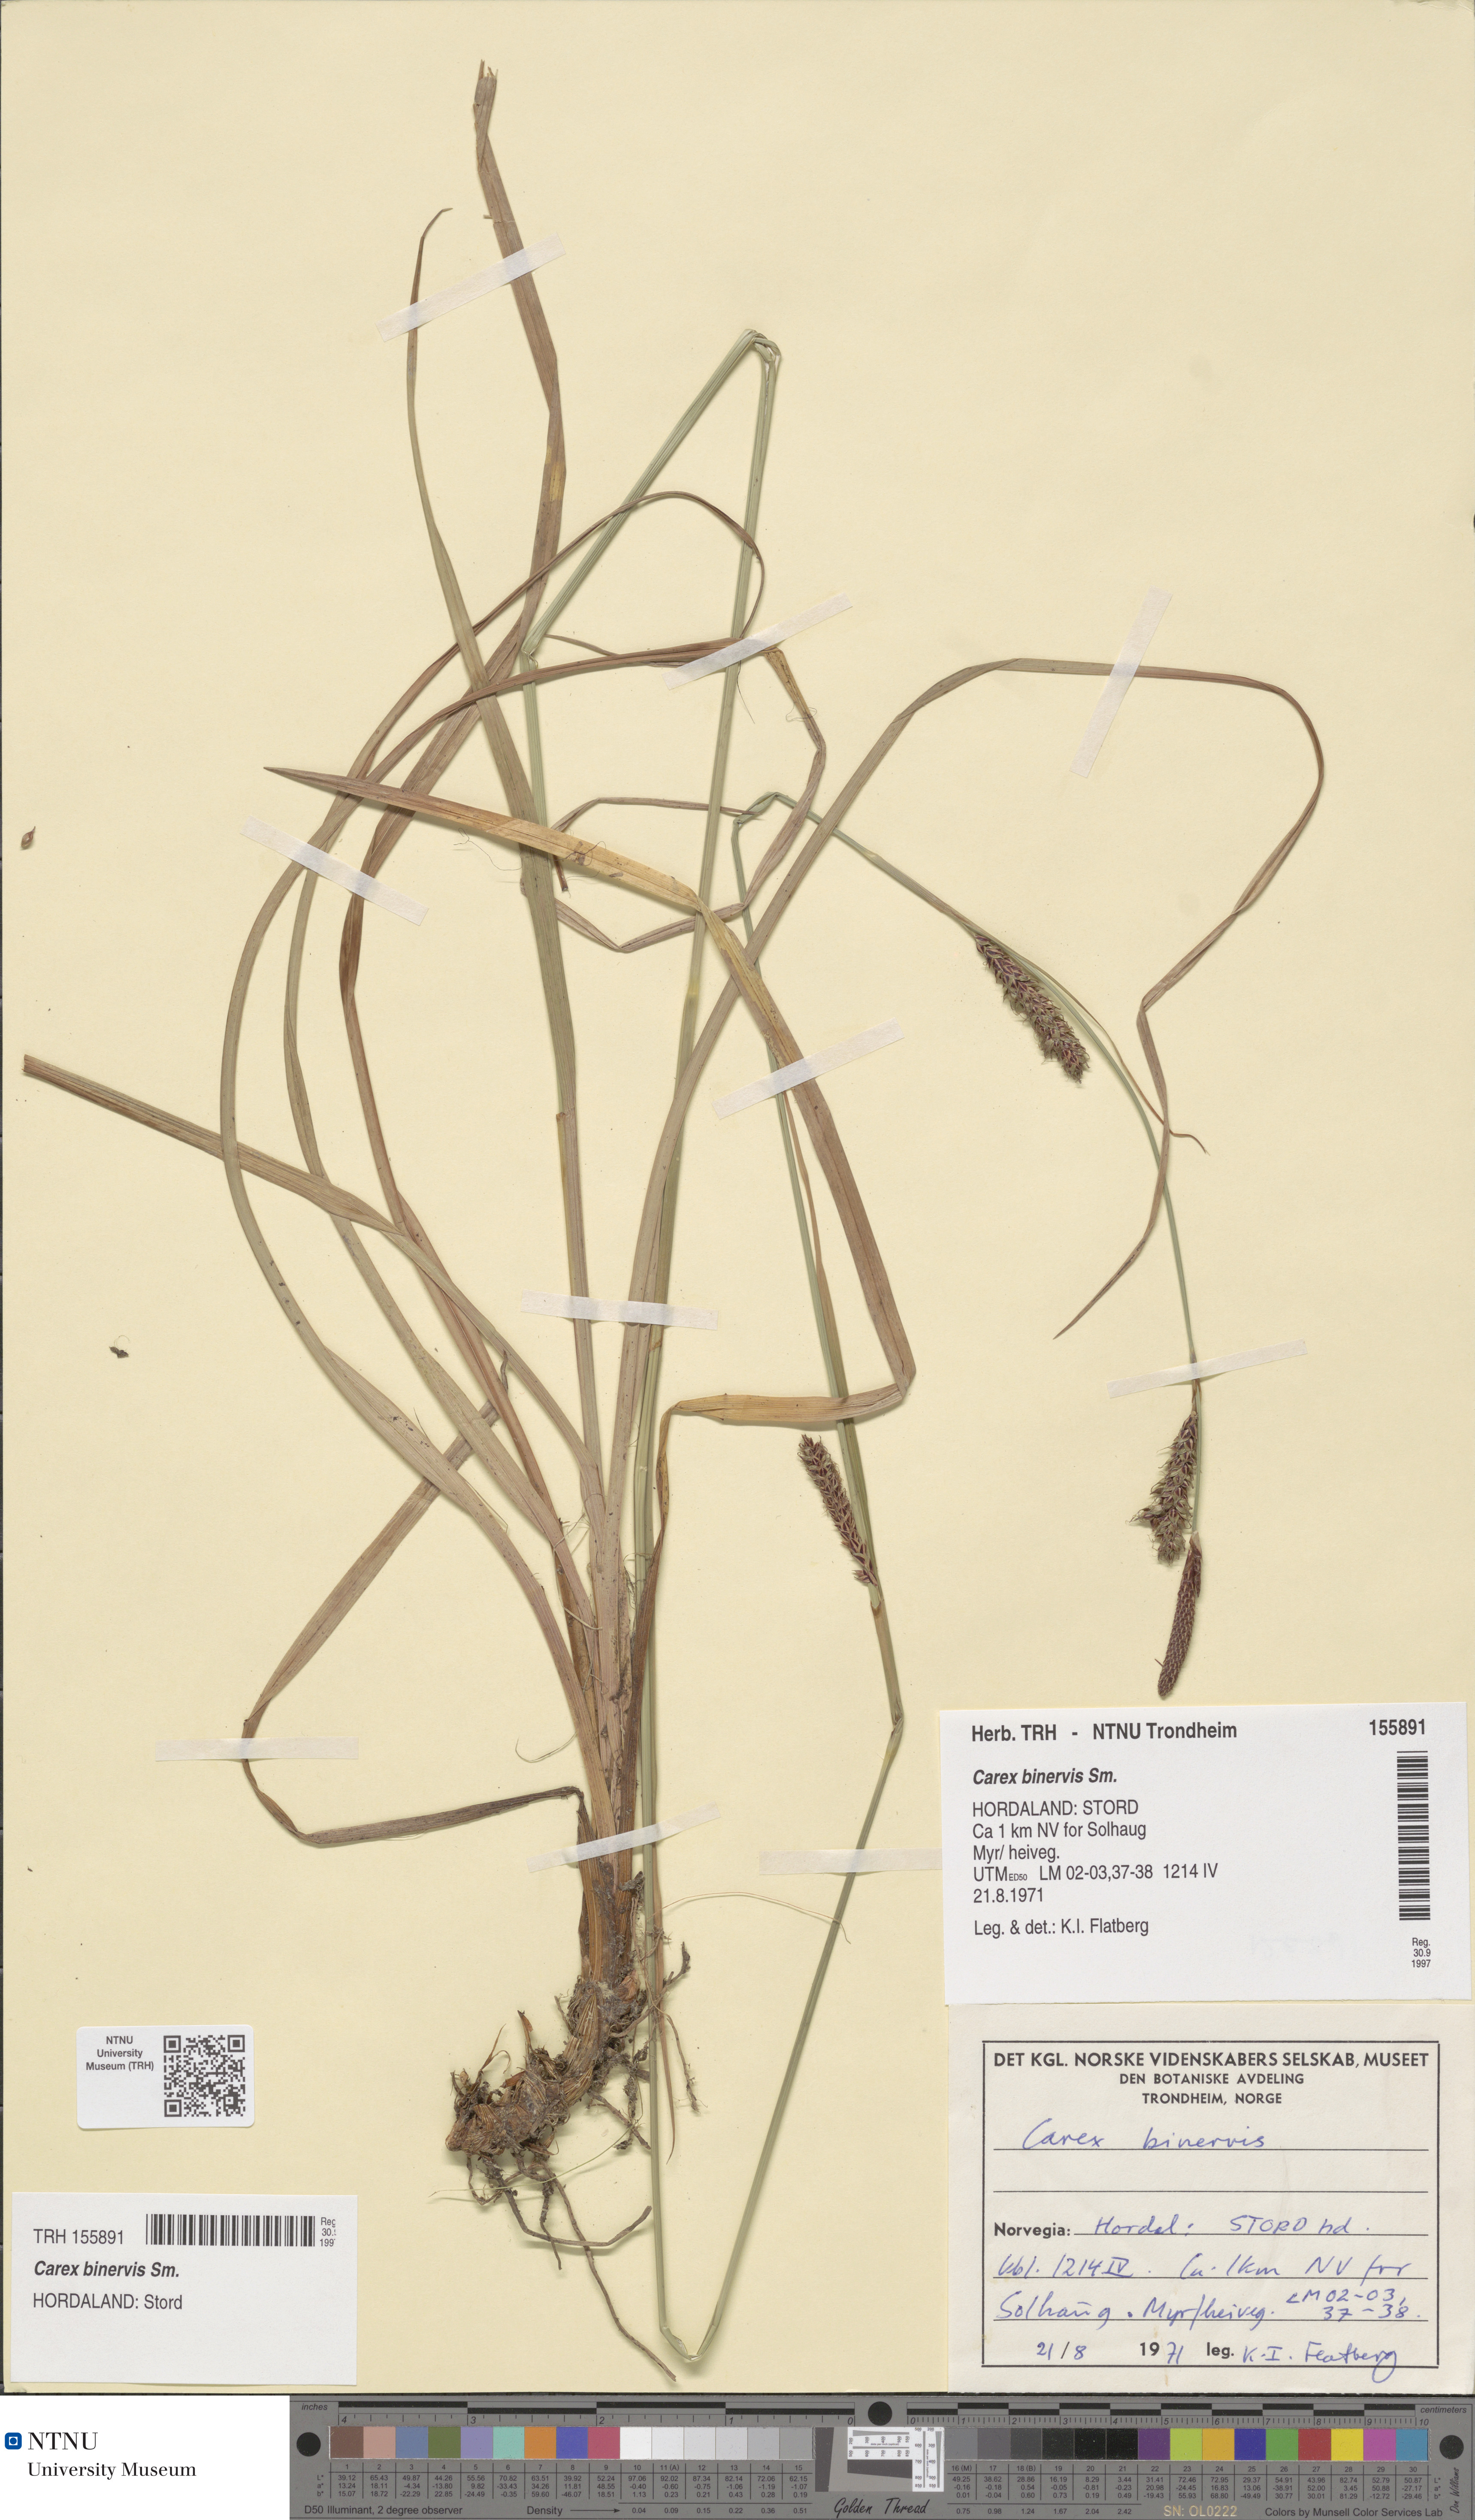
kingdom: Plantae
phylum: Tracheophyta
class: Liliopsida
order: Poales
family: Cyperaceae
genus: Carex
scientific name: Carex binervis
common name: Green-ribbed sedge
